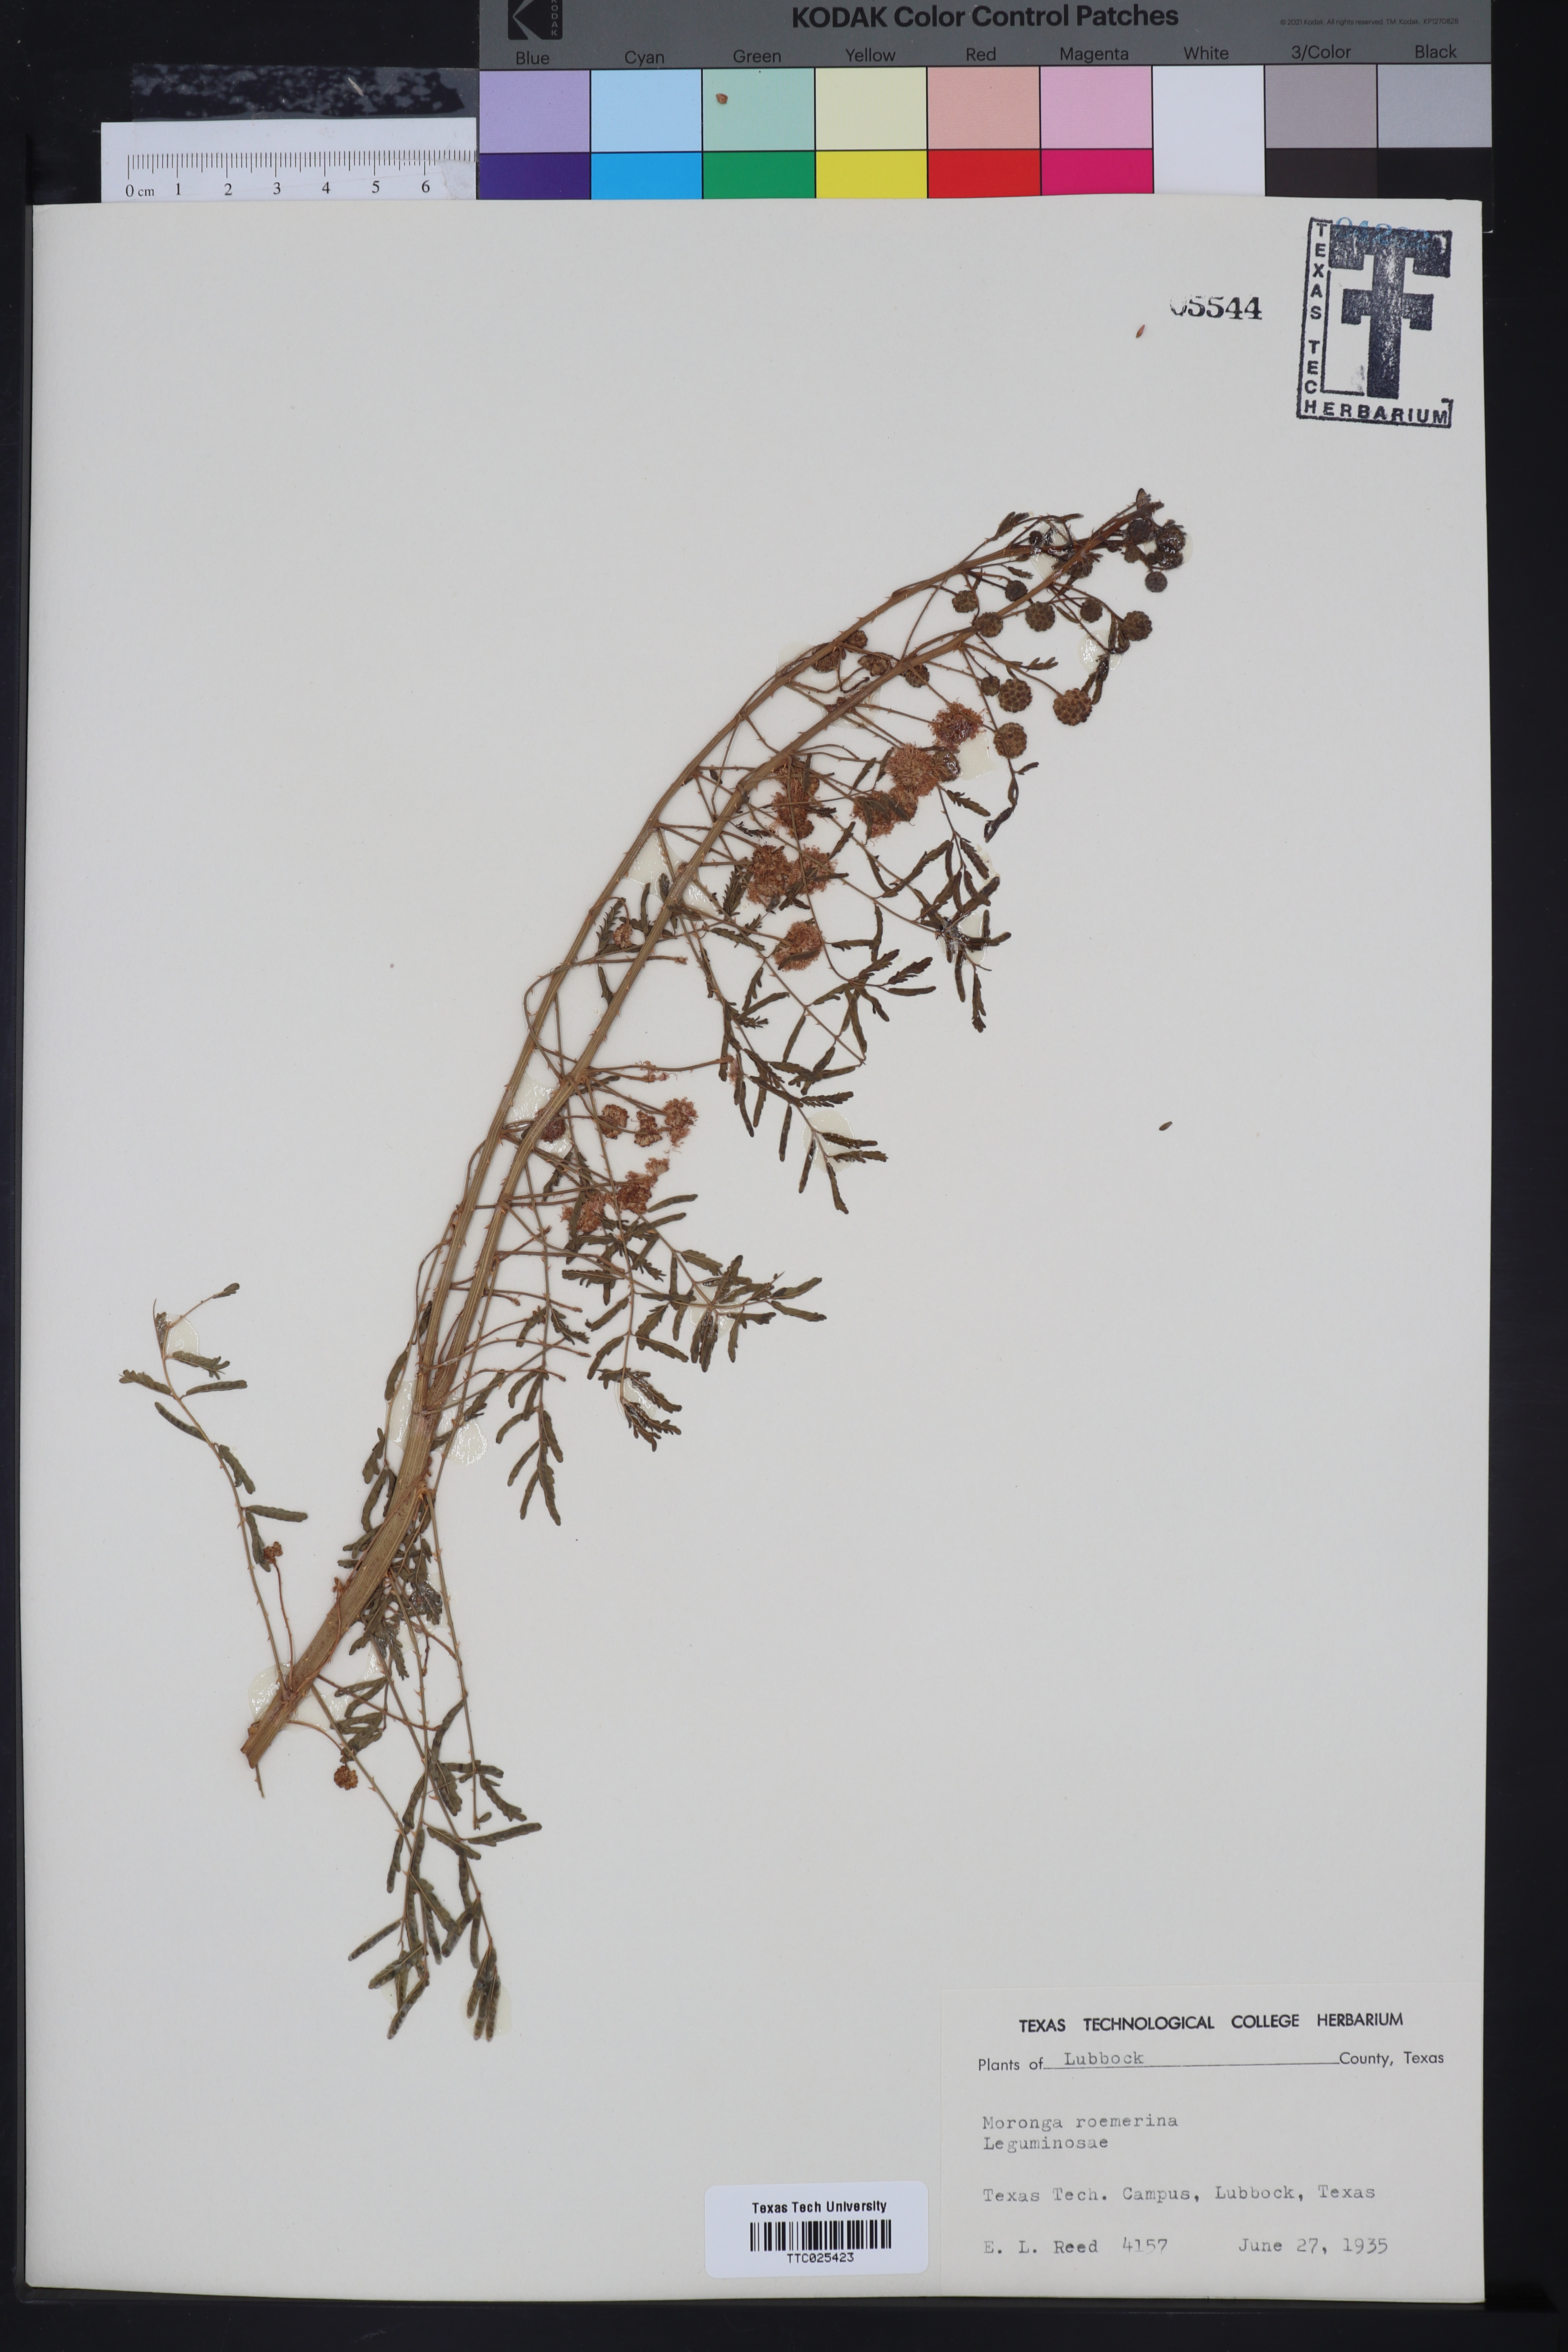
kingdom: Plantae
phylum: Tracheophyta
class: Magnoliopsida
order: Fabales
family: Fabaceae
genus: Mimosa
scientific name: Mimosa quadrivalvis
